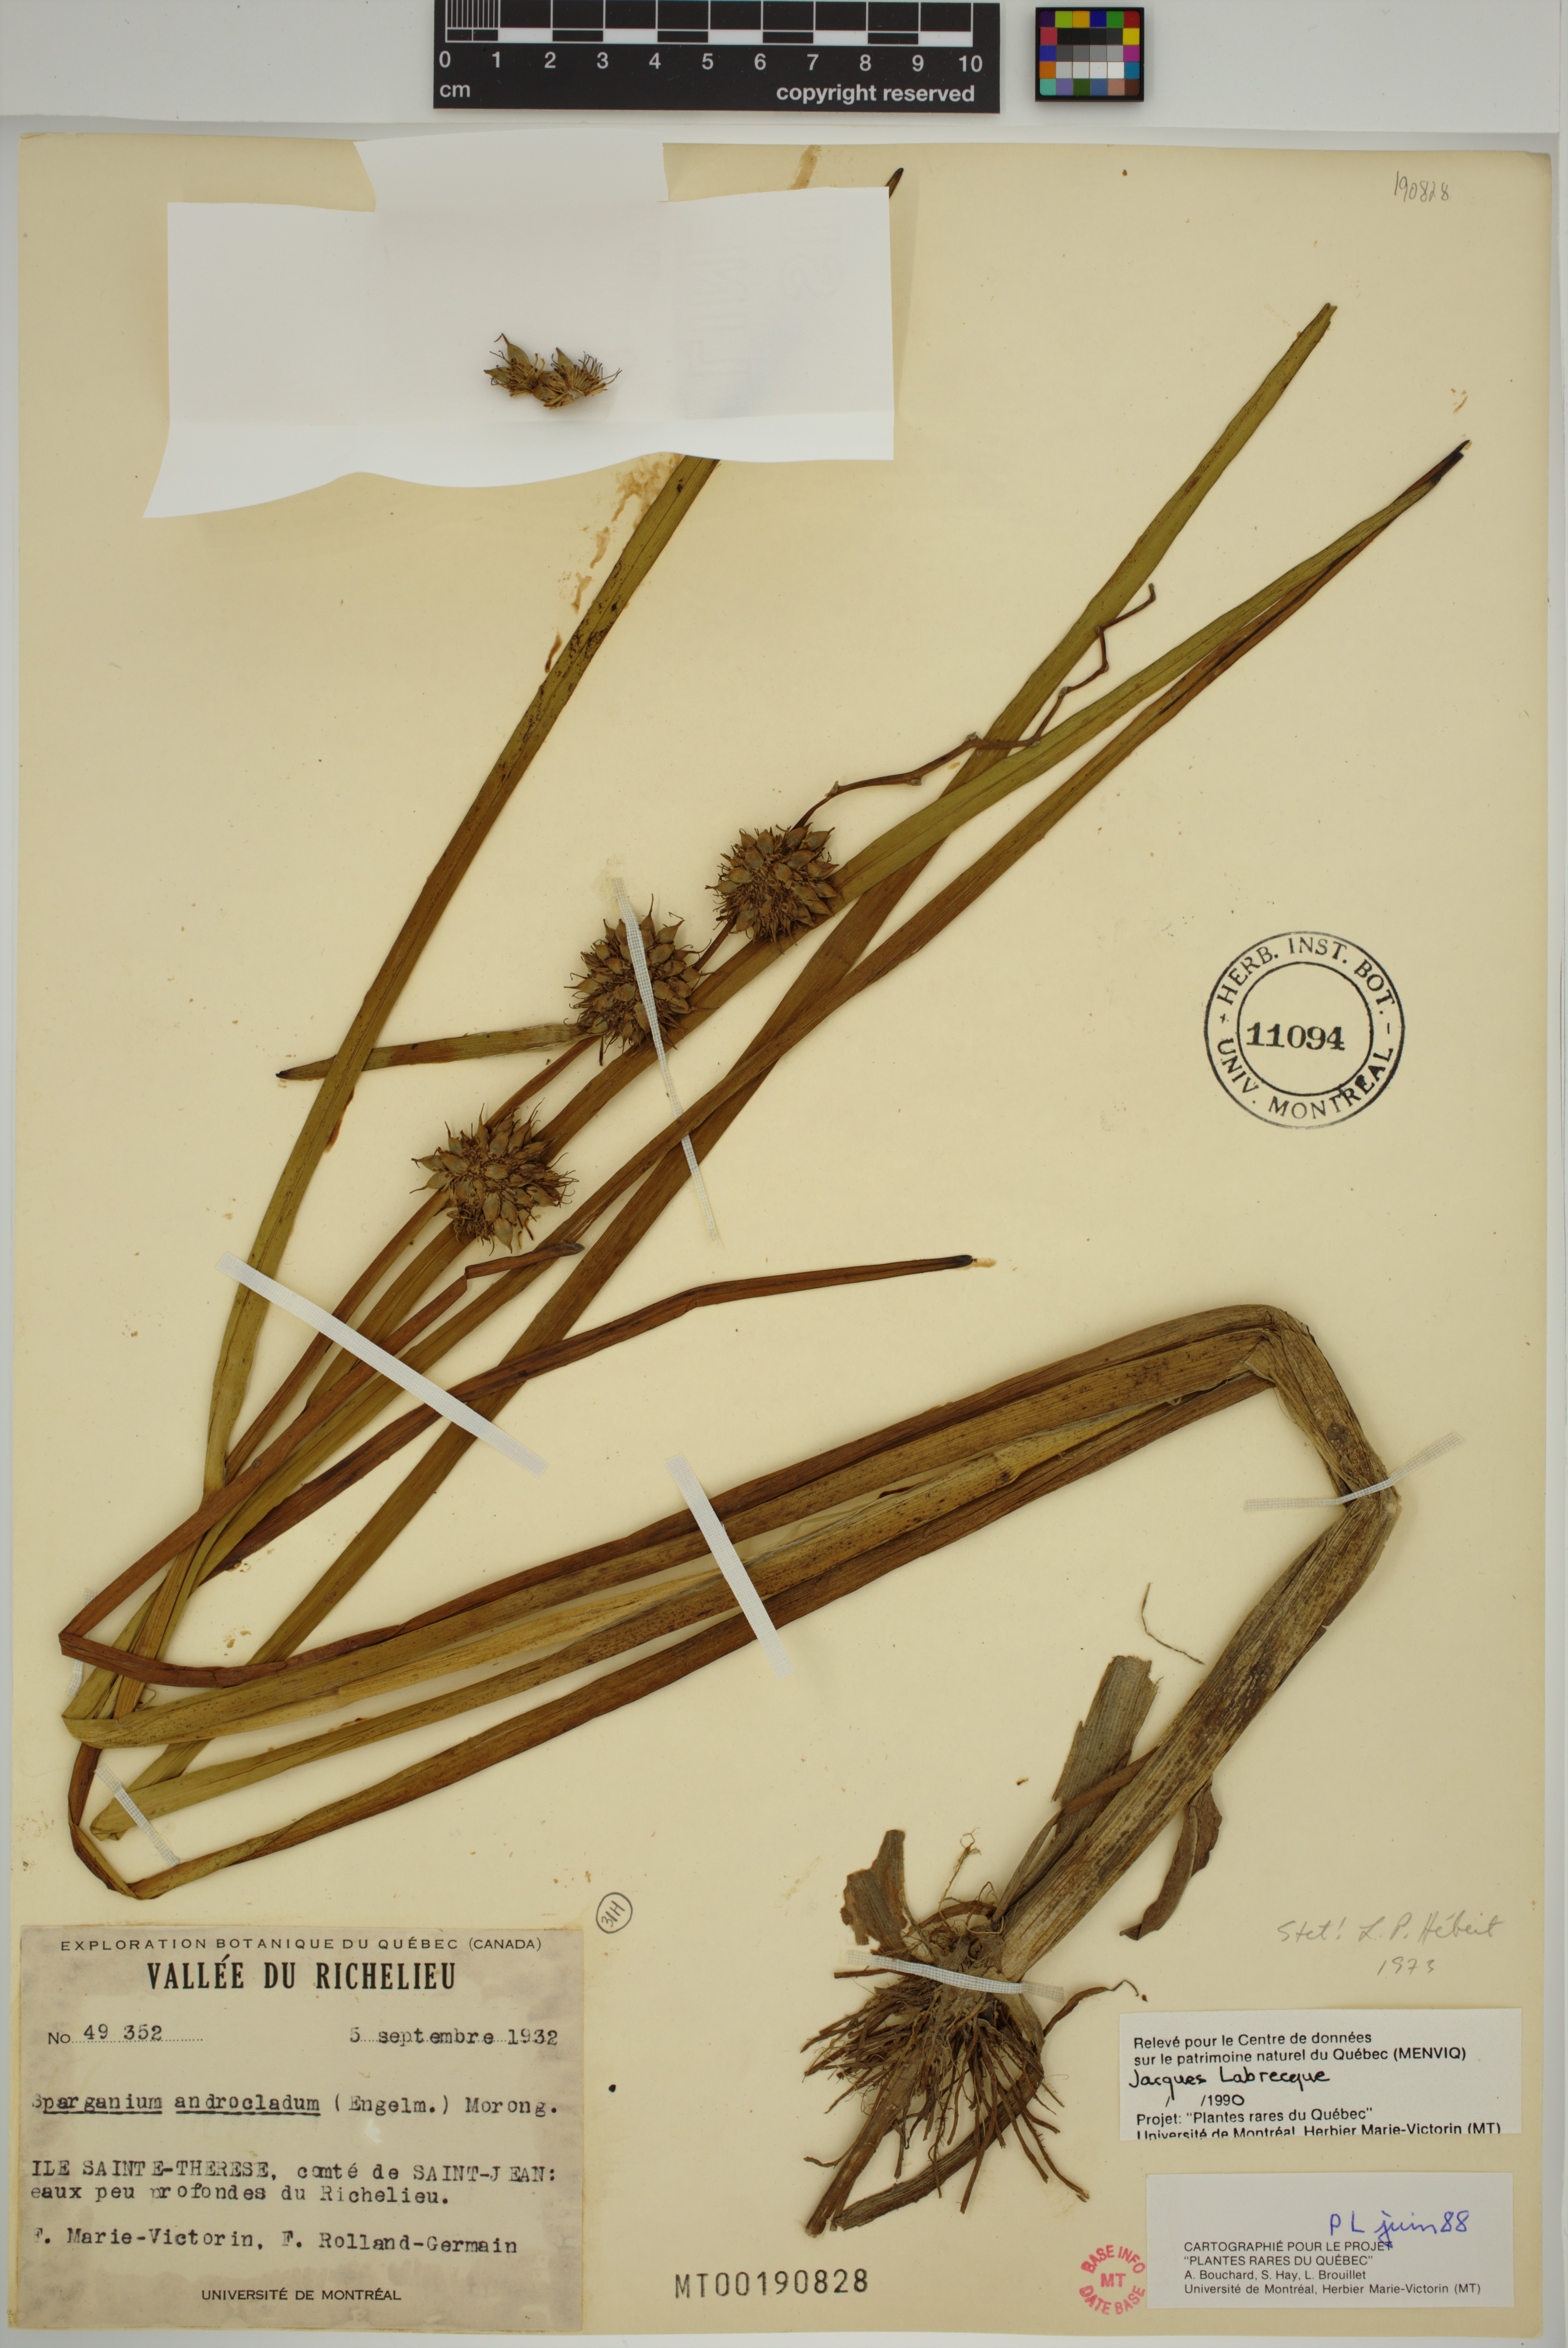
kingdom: Plantae
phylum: Tracheophyta
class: Liliopsida
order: Poales
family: Typhaceae
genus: Sparganium
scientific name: Sparganium androcladum
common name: Branched burreed
